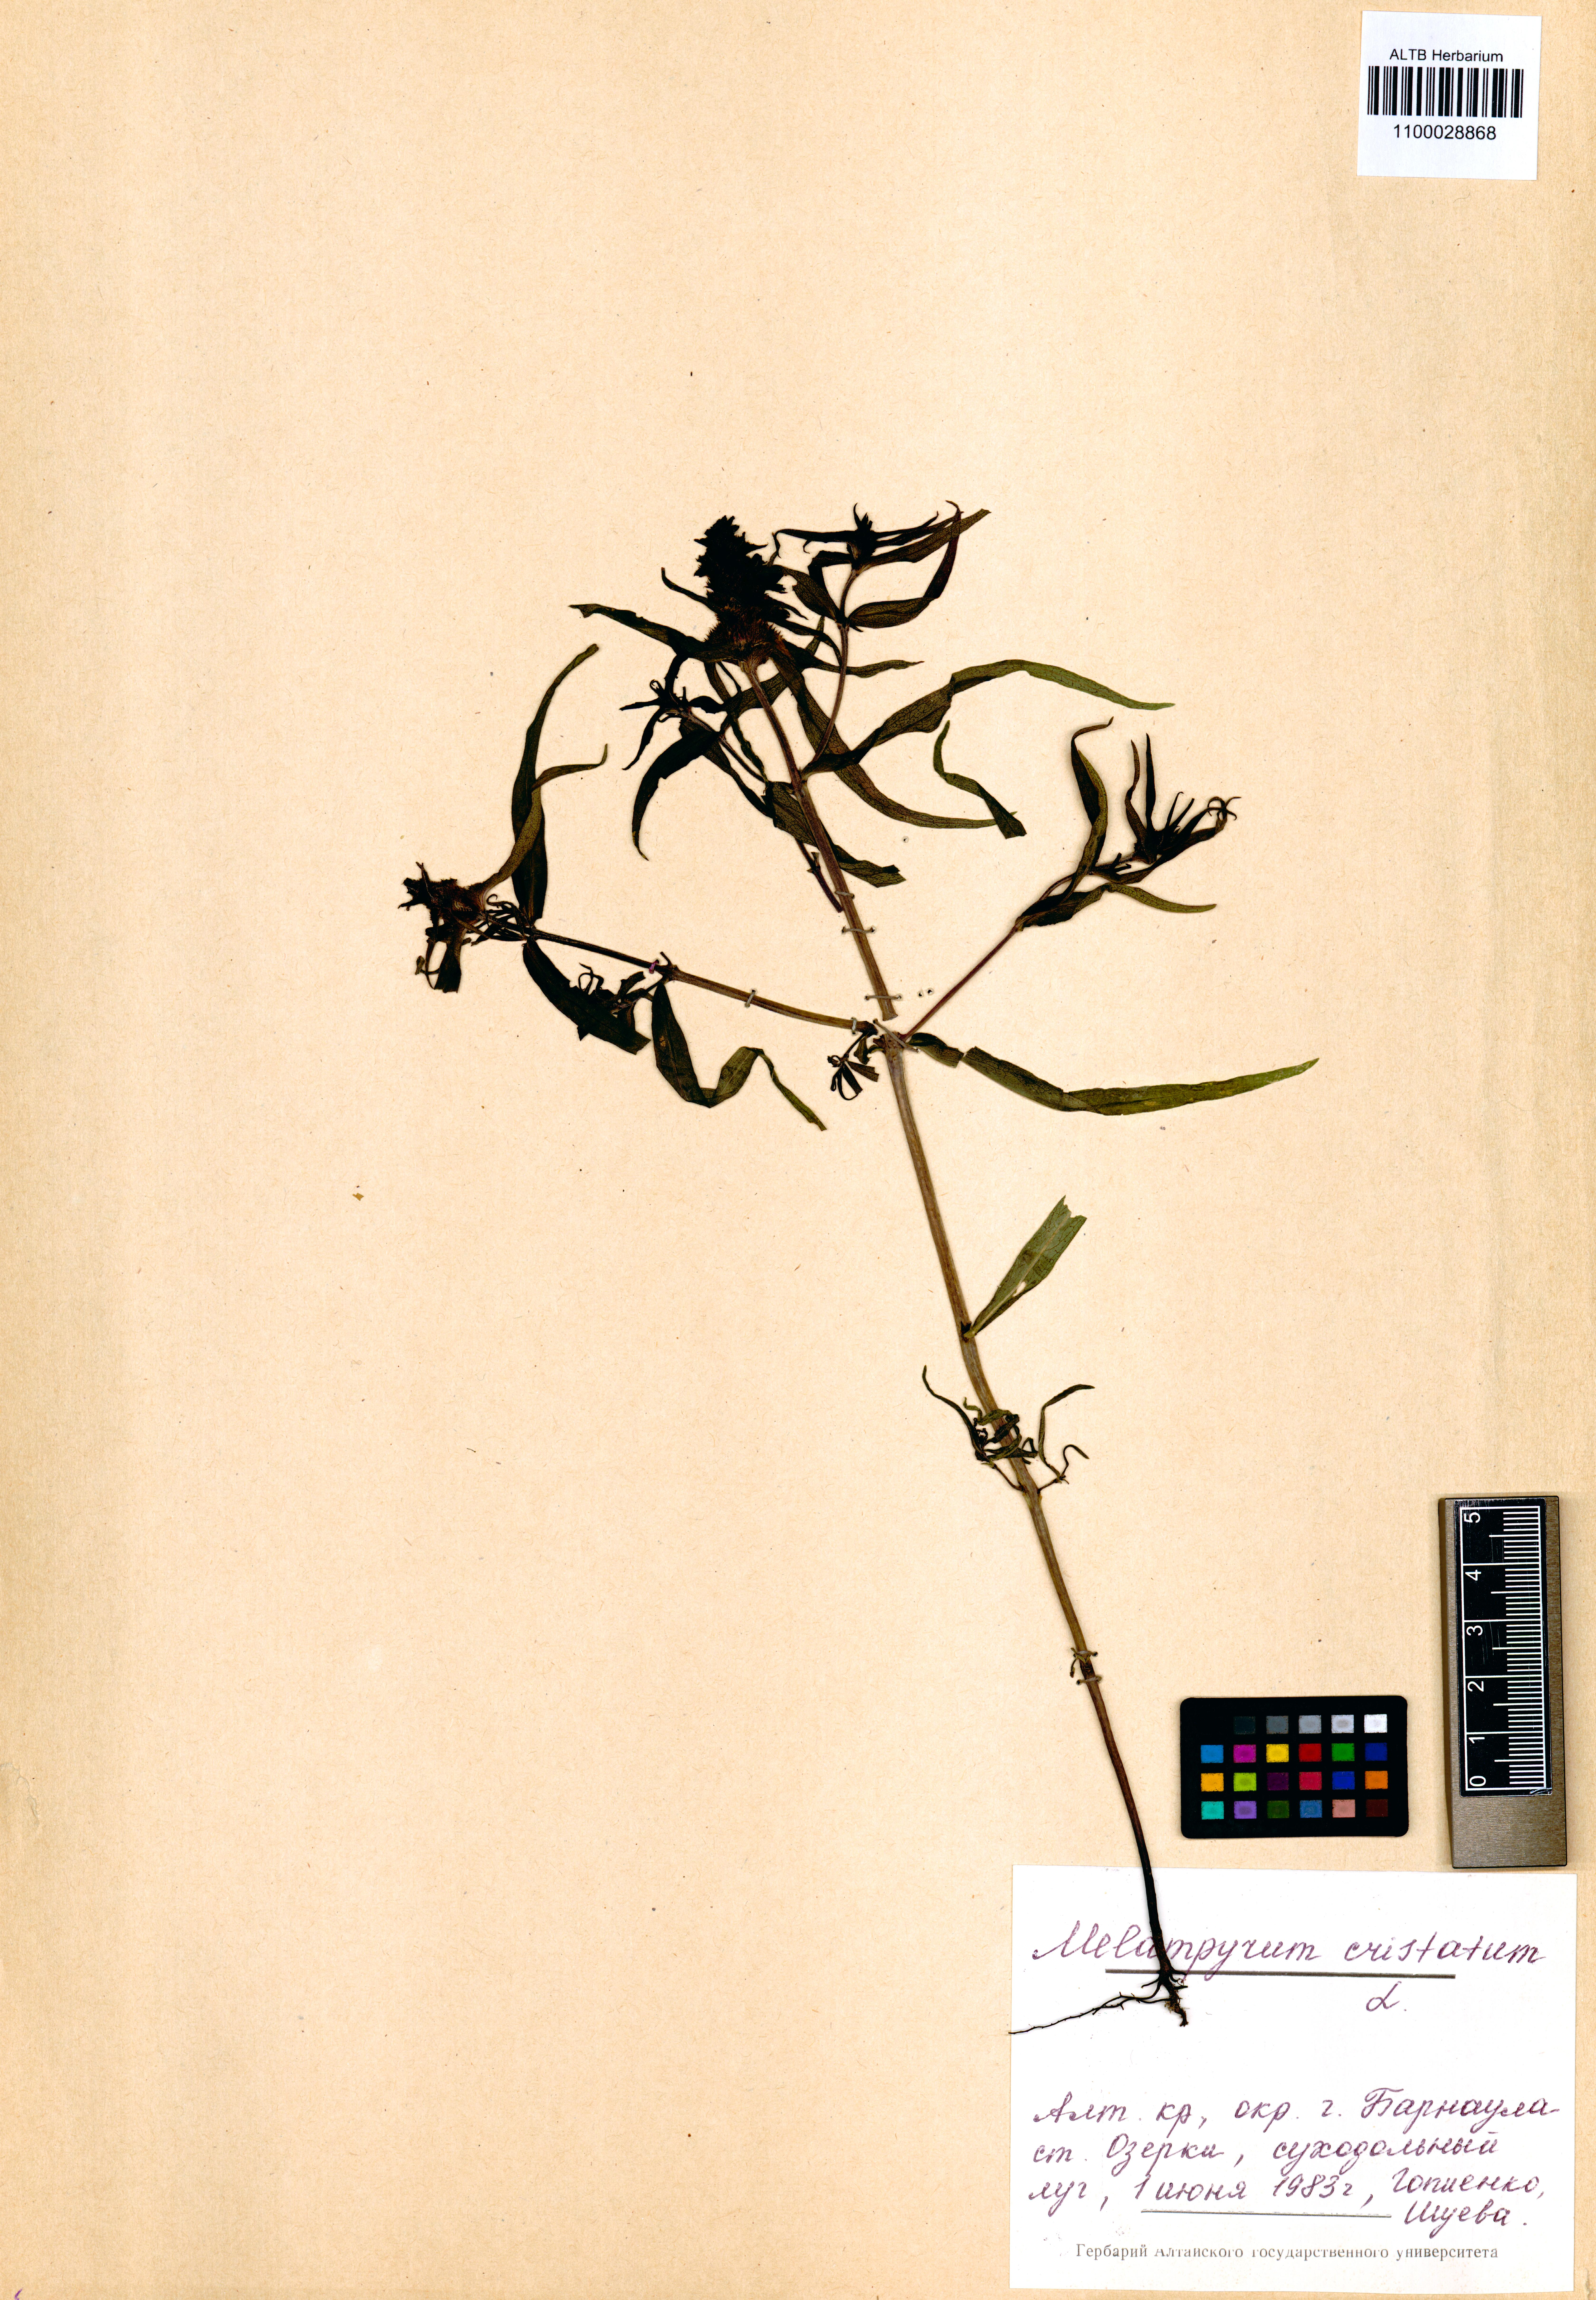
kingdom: Plantae
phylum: Tracheophyta
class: Magnoliopsida
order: Lamiales
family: Orobanchaceae
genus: Melampyrum
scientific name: Melampyrum cristatum
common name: Crested cow-wheat
